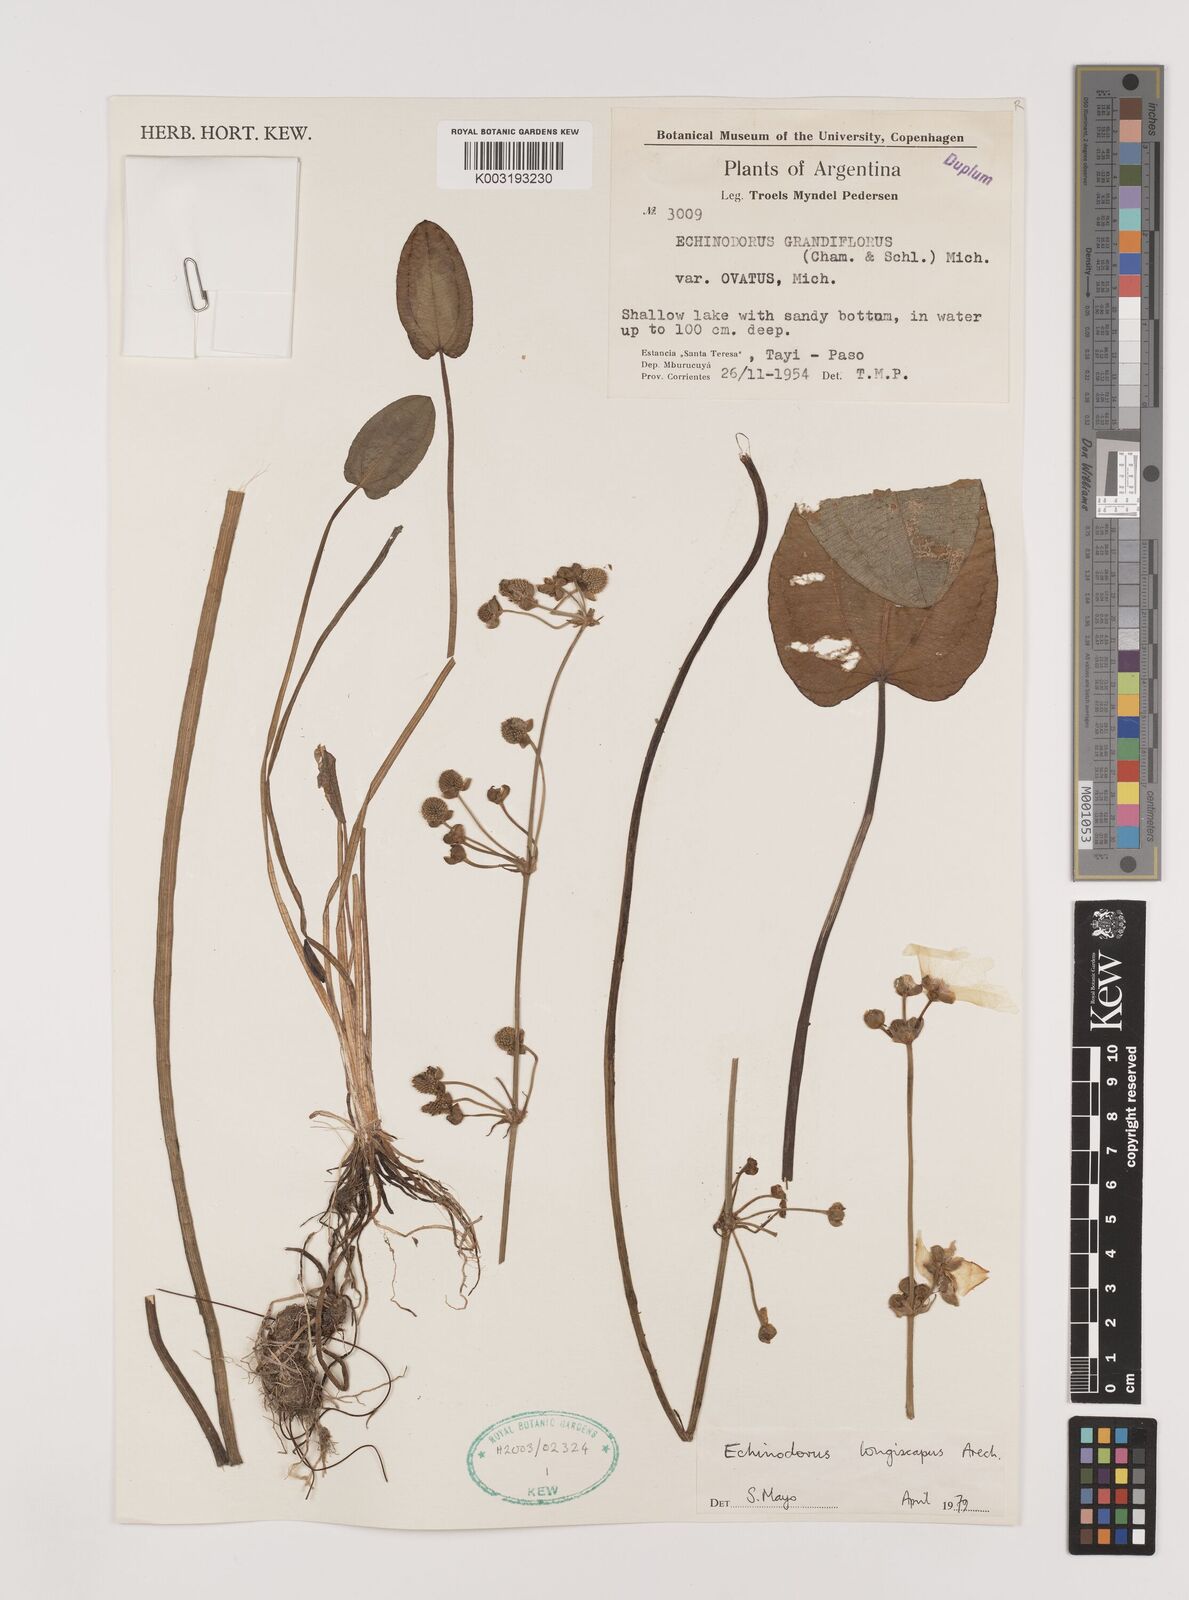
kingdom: Plantae
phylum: Tracheophyta
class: Liliopsida
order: Alismatales
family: Alismataceae
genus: Aquarius
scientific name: Aquarius longiscapus
